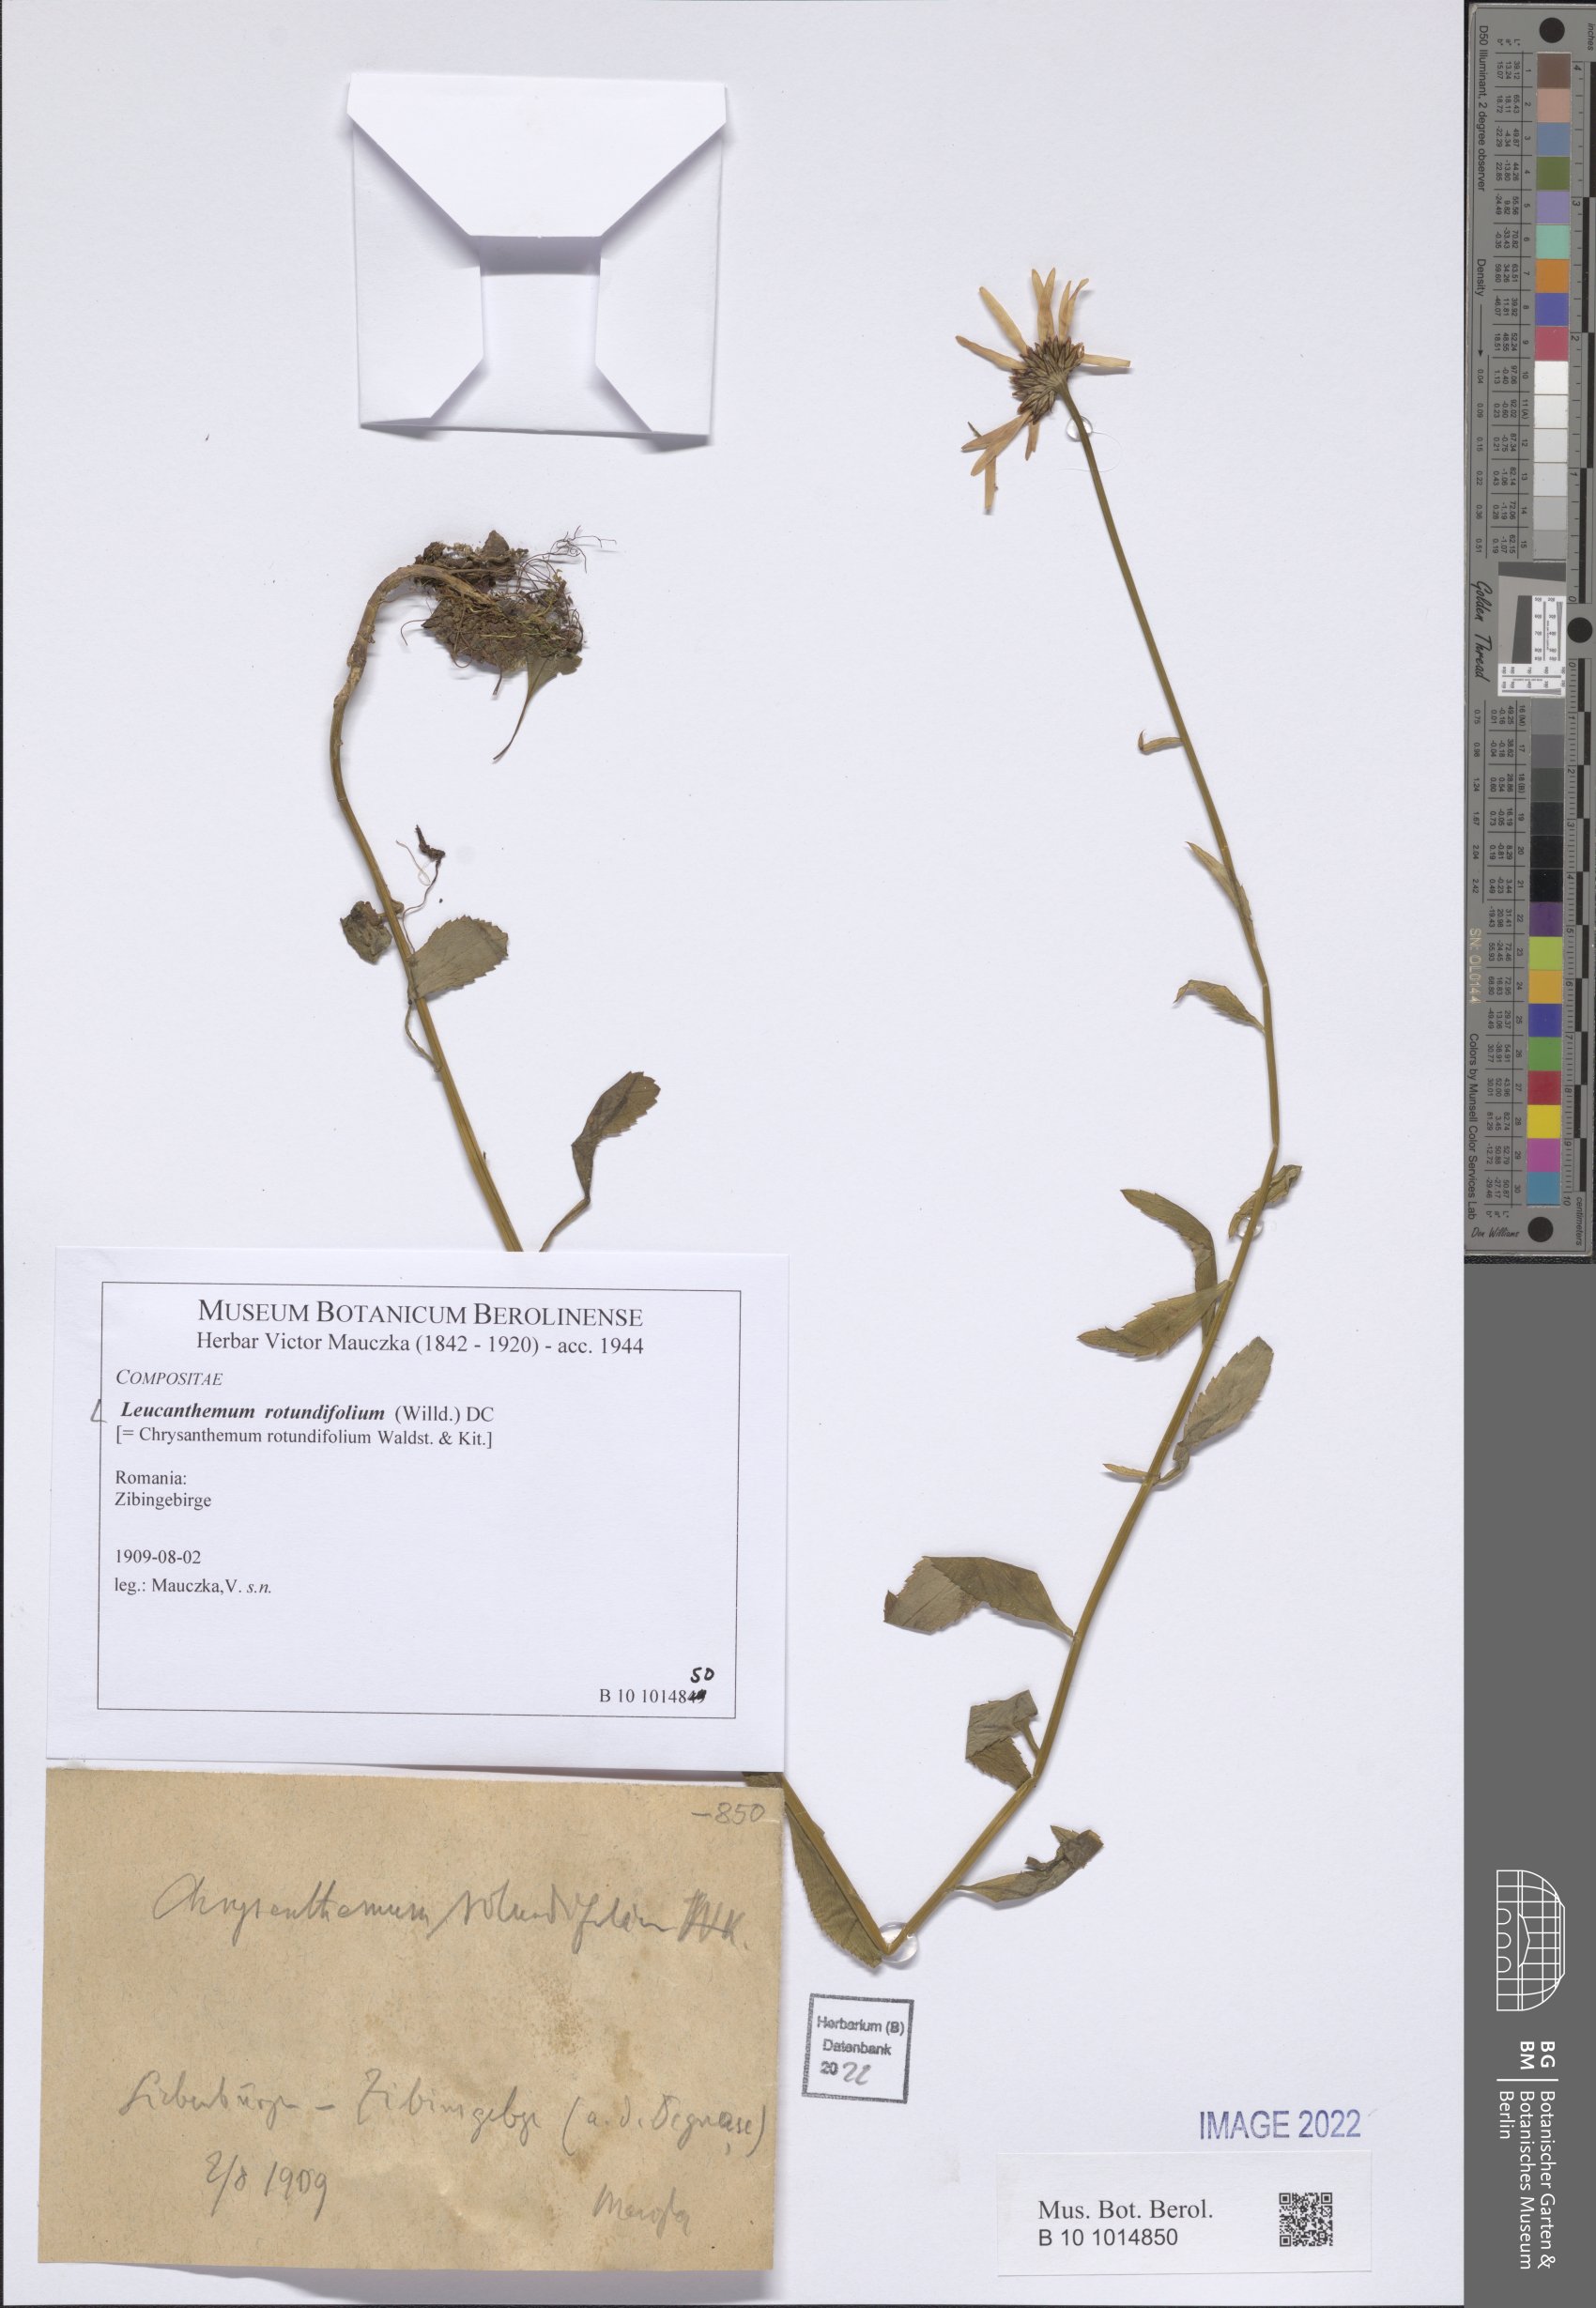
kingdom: Plantae
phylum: Tracheophyta
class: Magnoliopsida
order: Asterales
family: Asteraceae
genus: Leucanthemum
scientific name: Leucanthemum rotundifolium
